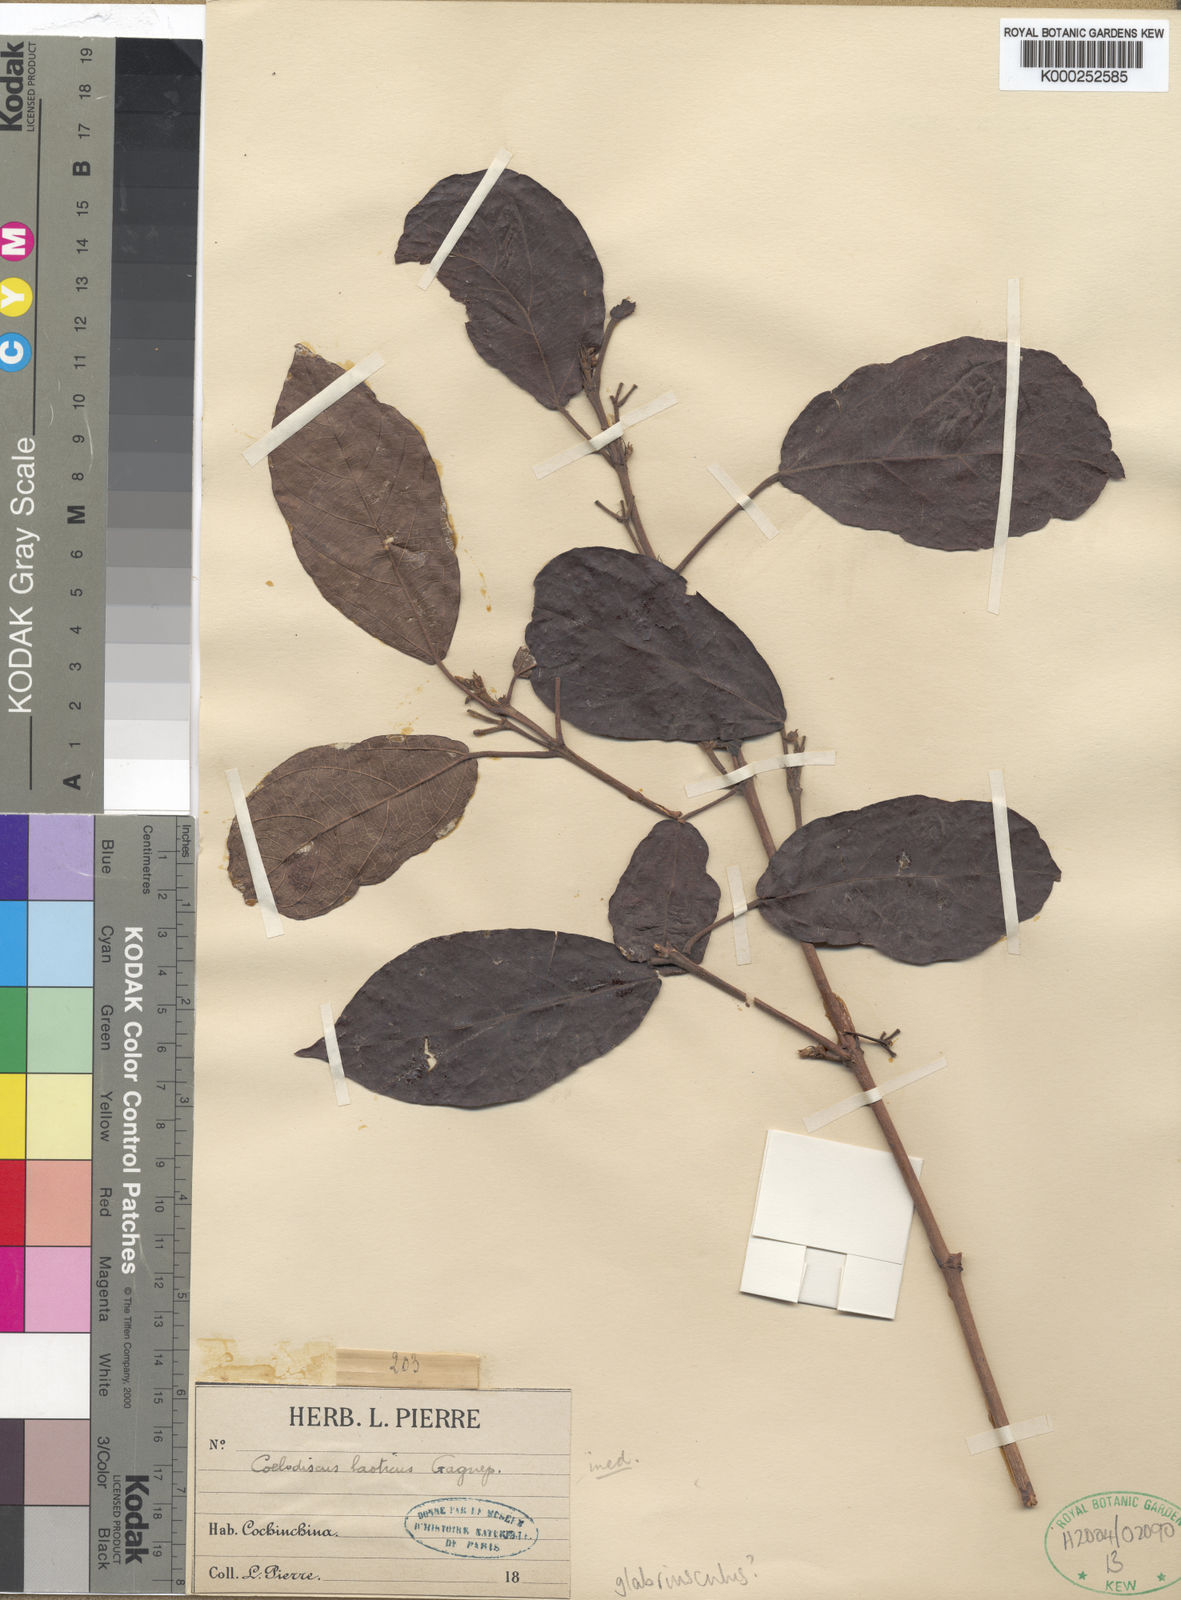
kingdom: Plantae
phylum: Tracheophyta
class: Magnoliopsida
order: Malpighiales
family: Euphorbiaceae
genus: Mallotus
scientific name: Mallotus glabriusculus
